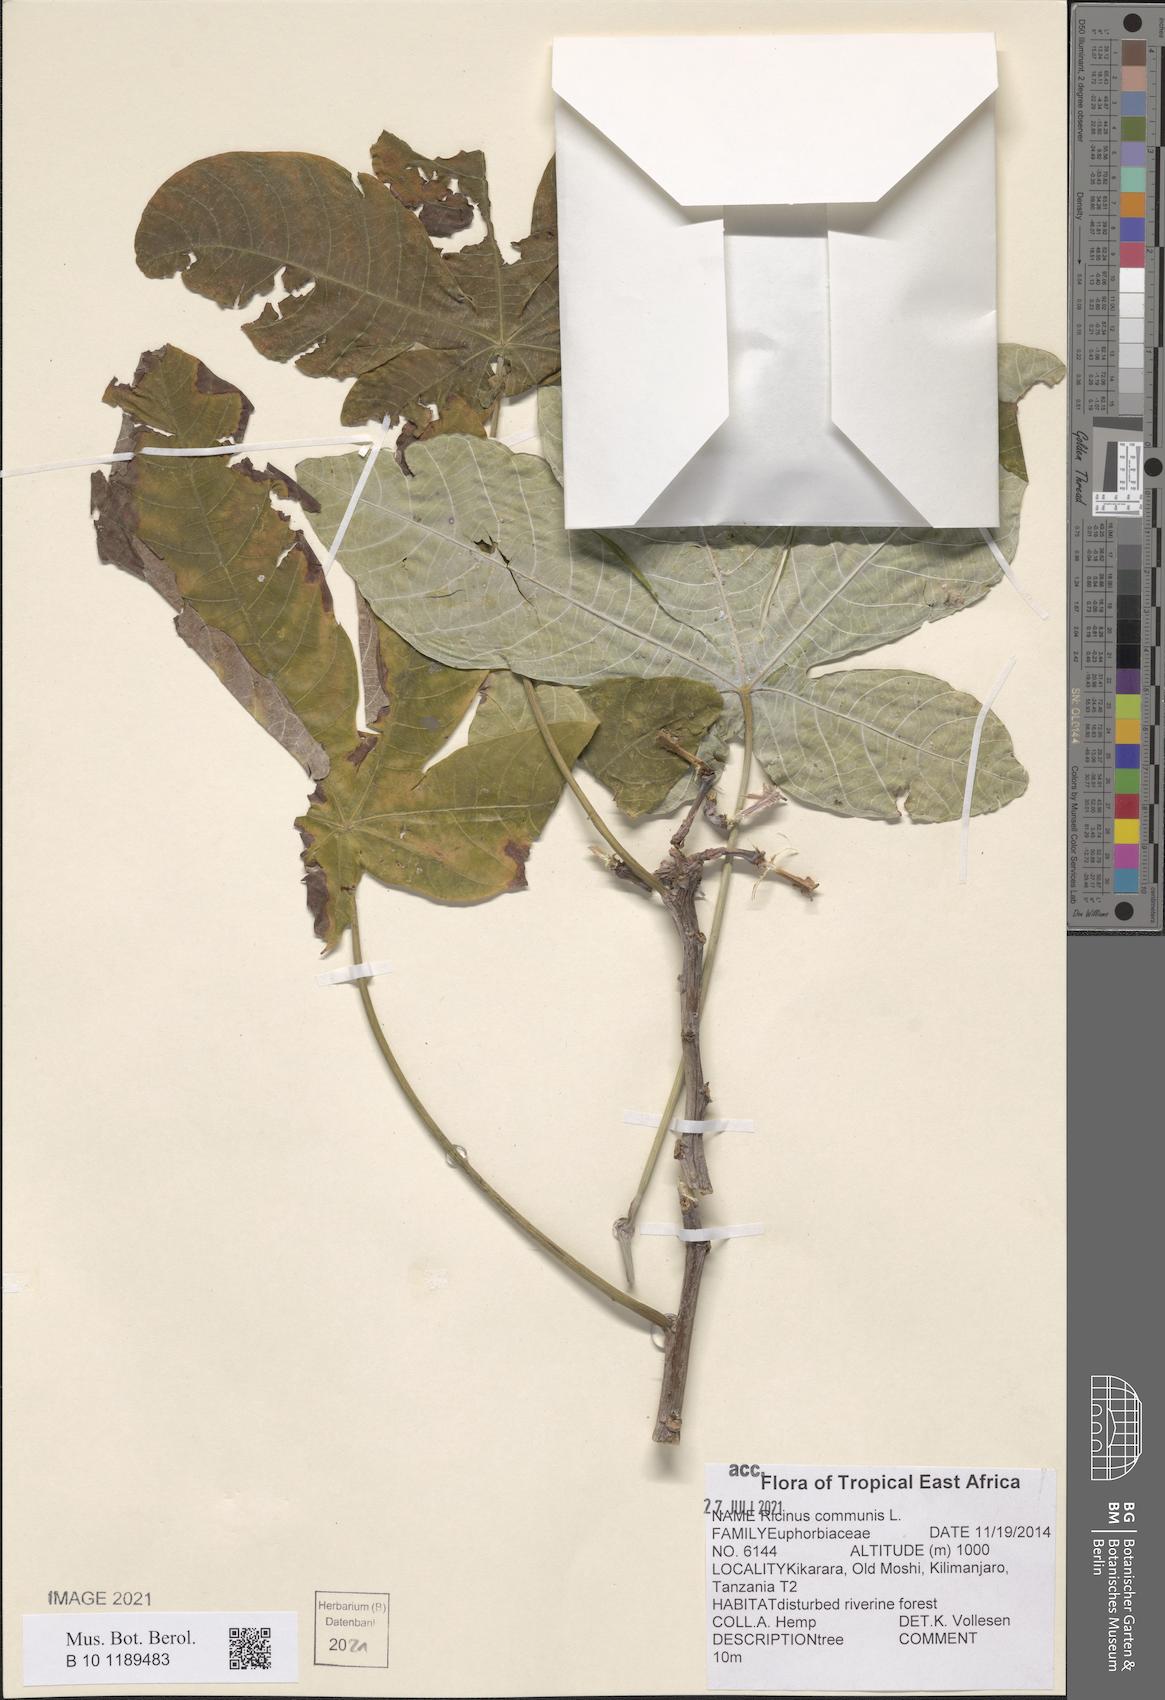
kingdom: Plantae
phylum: Tracheophyta
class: Magnoliopsida
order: Malpighiales
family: Euphorbiaceae
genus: Ricinus
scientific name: Ricinus communis
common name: Castor-oil-plant
